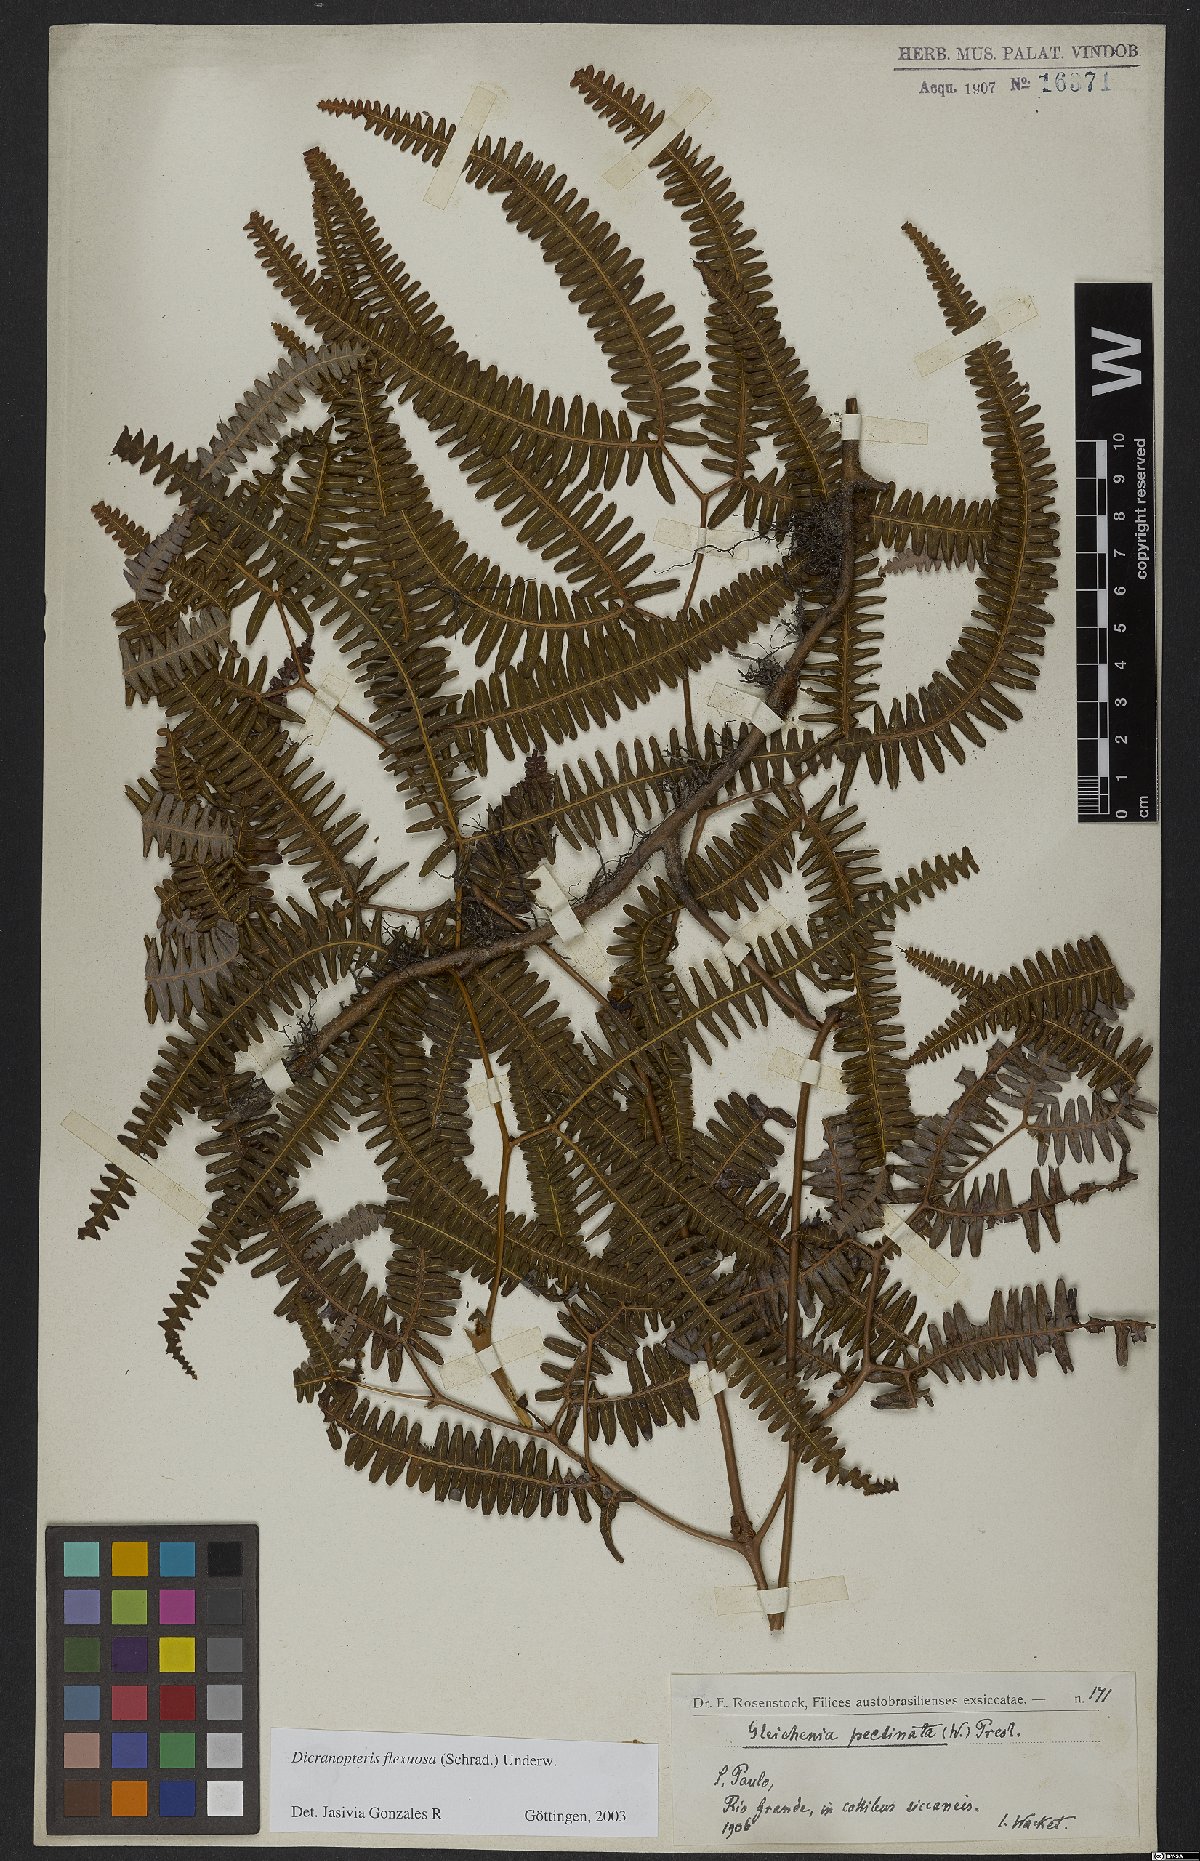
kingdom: Plantae
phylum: Tracheophyta
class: Polypodiopsida
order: Gleicheniales
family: Gleicheniaceae
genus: Dicranopteris
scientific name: Dicranopteris flexuosa
